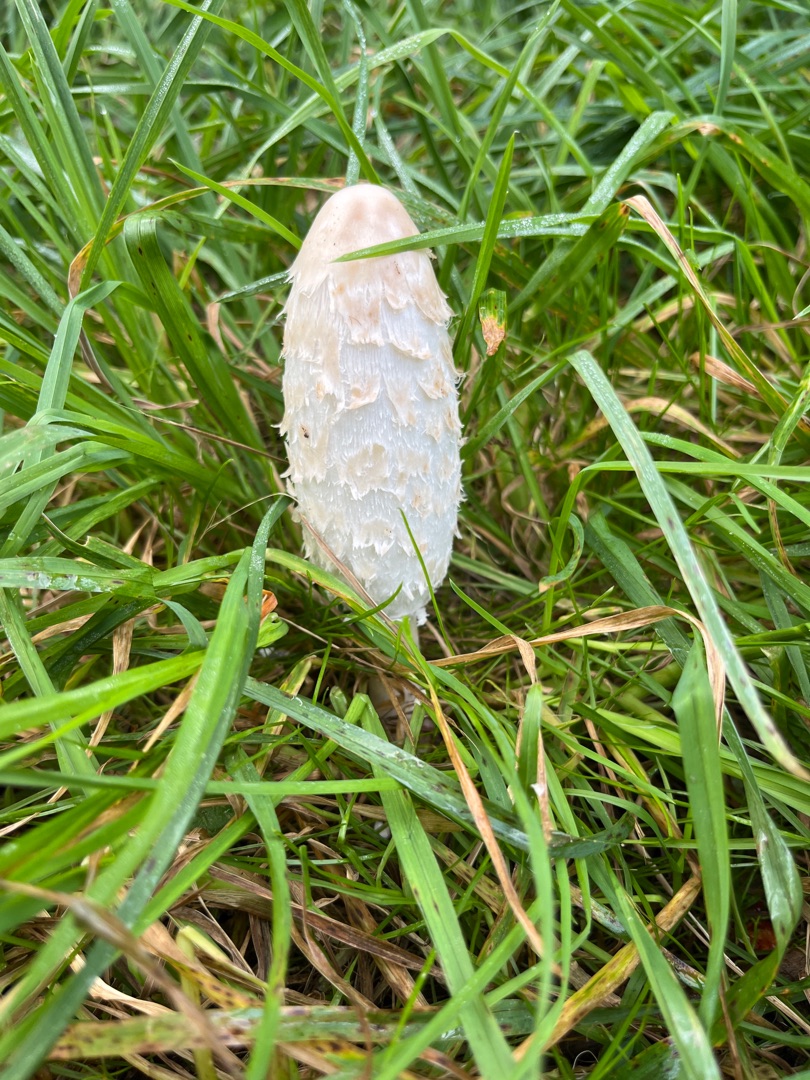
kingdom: Fungi
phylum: Basidiomycota
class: Agaricomycetes
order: Agaricales
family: Agaricaceae
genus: Coprinus
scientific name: Coprinus comatus
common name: Stor parykhat
